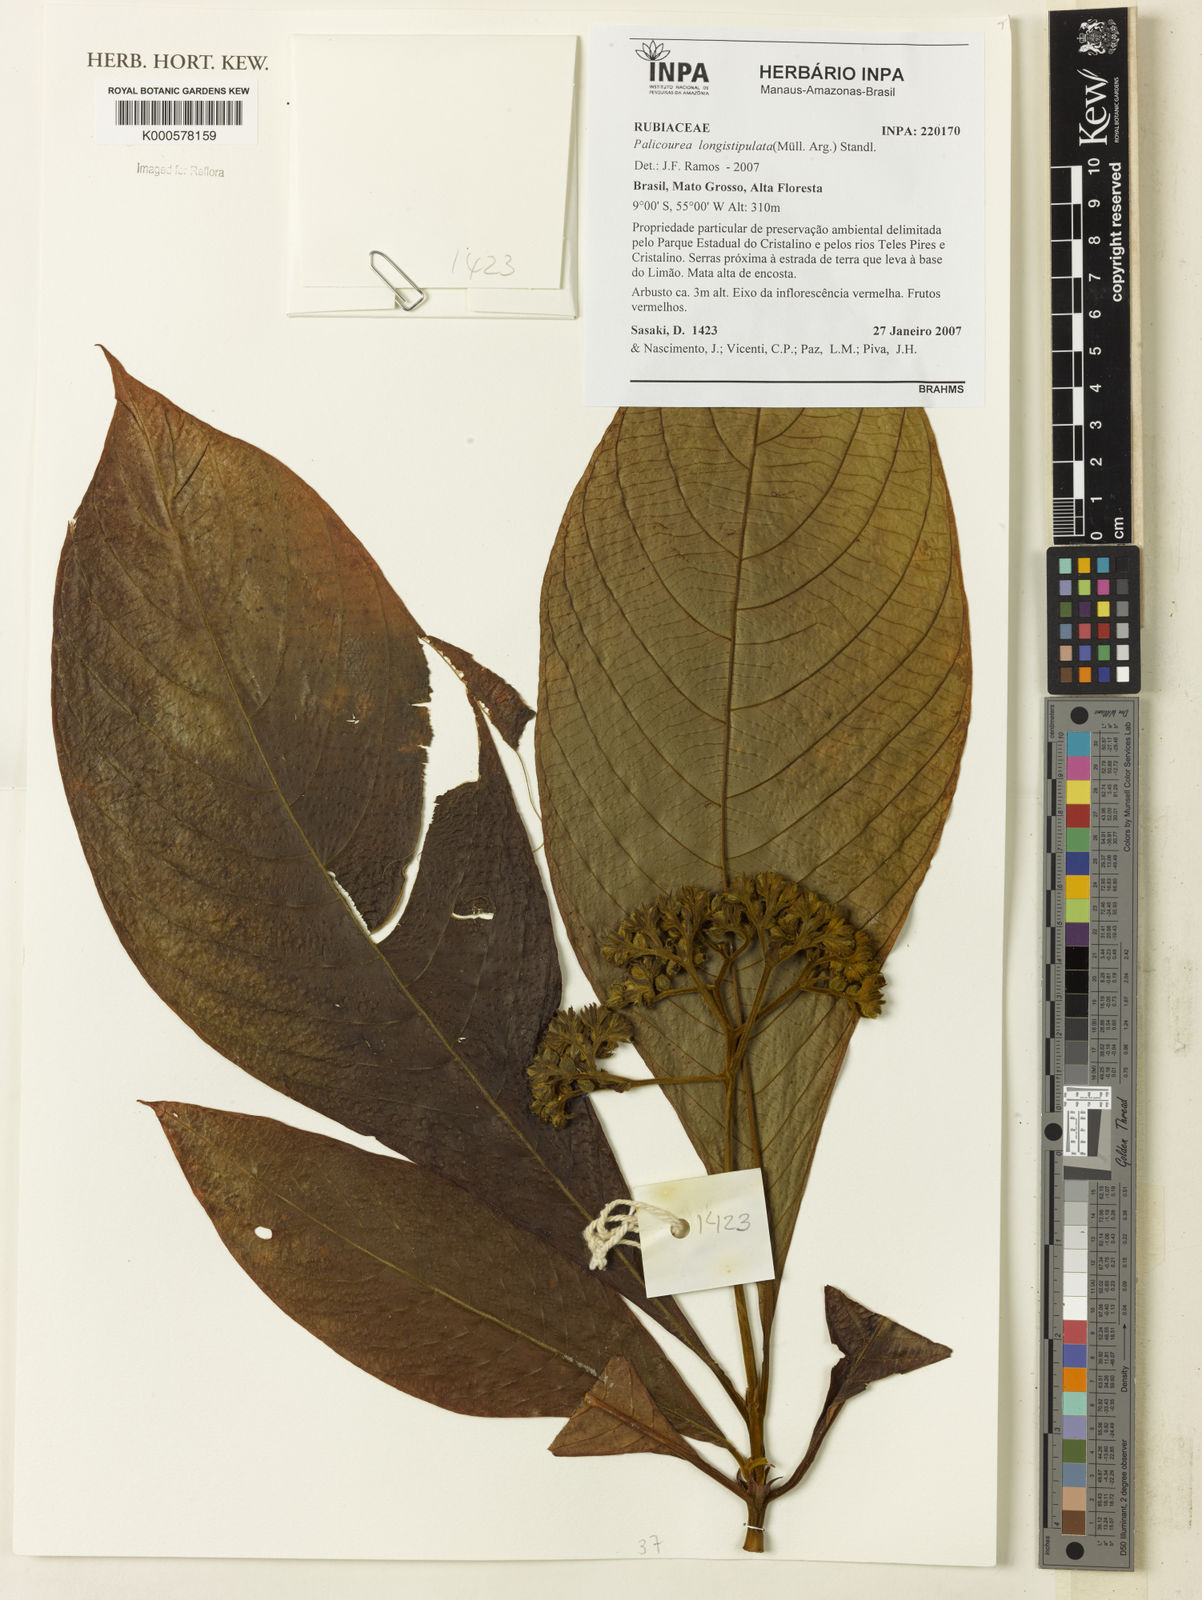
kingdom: Plantae
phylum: Tracheophyta
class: Magnoliopsida
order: Gentianales
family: Rubiaceae
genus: Palicourea
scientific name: Palicourea
